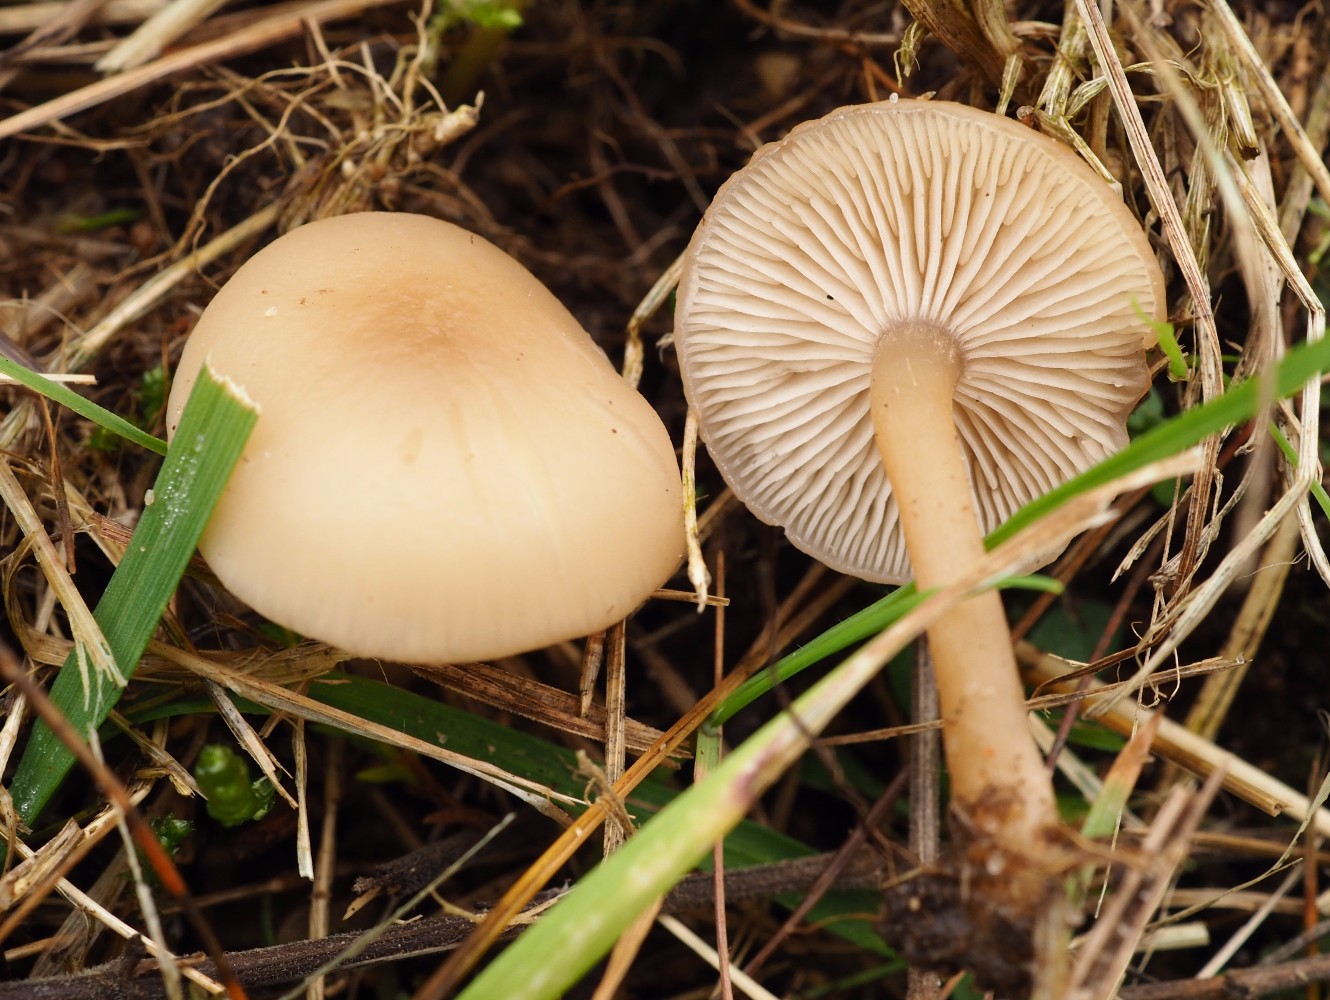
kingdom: Fungi
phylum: Basidiomycota
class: Agaricomycetes
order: Agaricales
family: Tricholomataceae
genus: Clitocybe
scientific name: Clitocybe fragrans
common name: vellugtende tragthat
